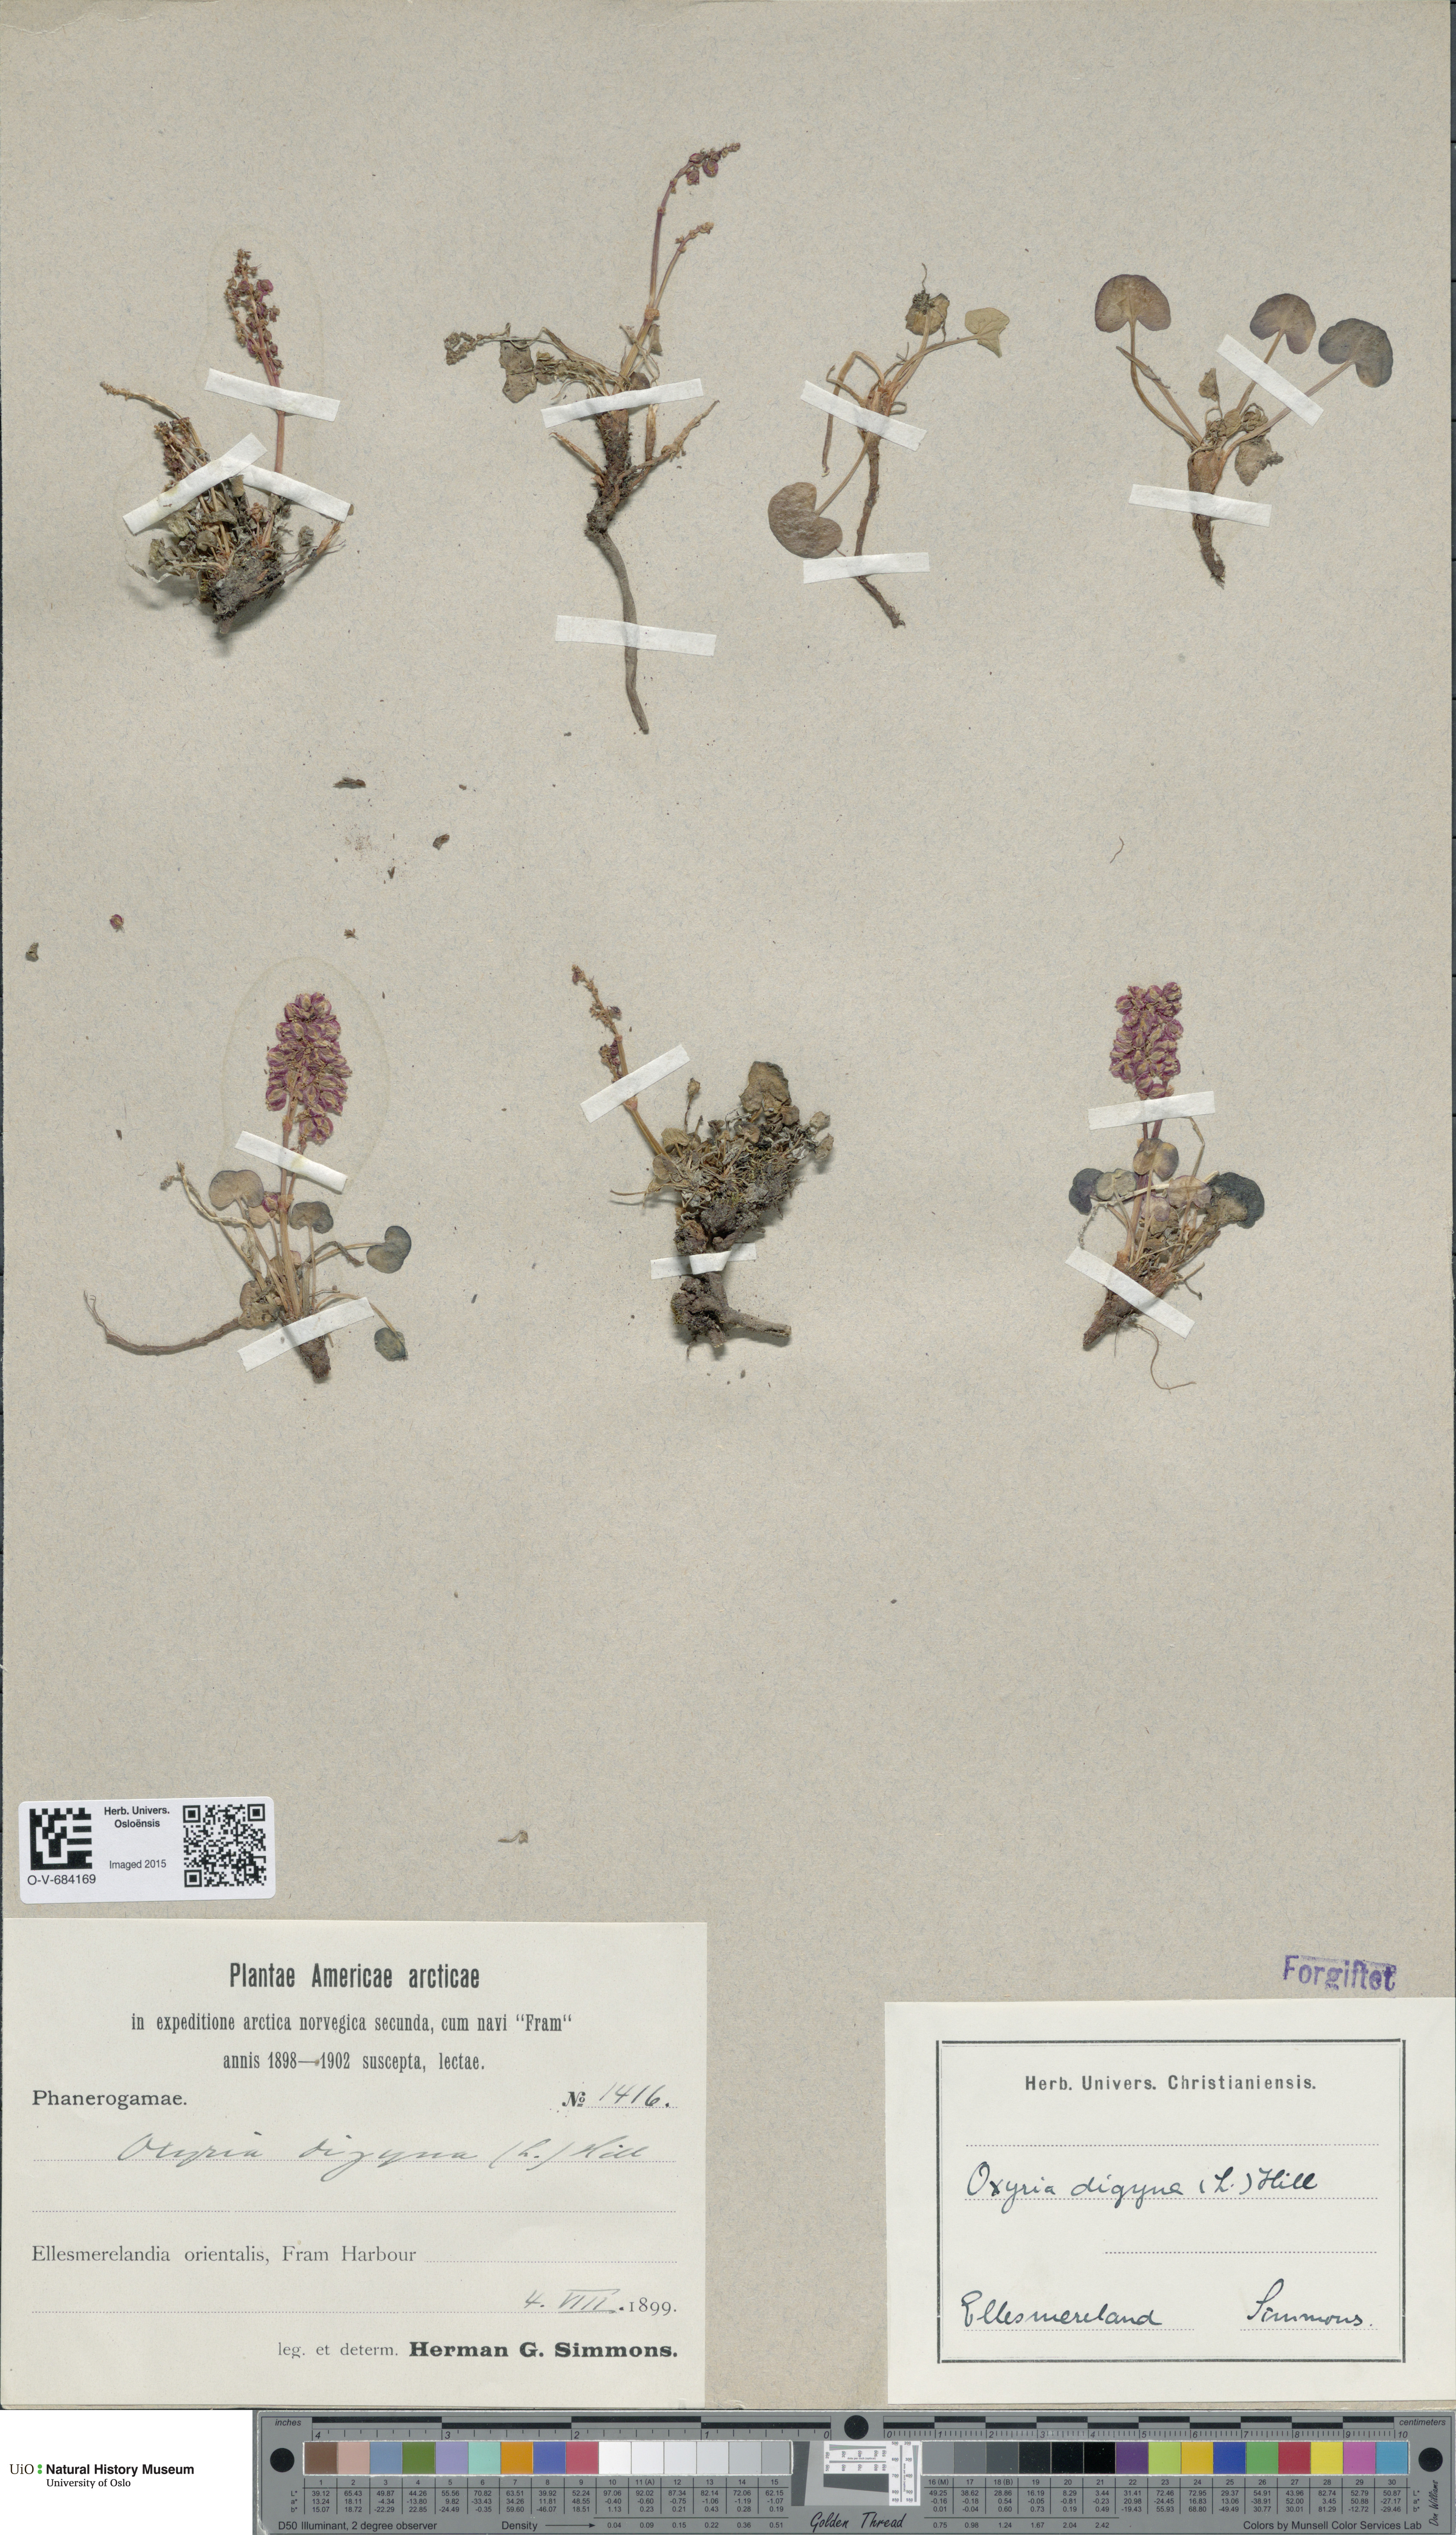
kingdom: Plantae
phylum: Tracheophyta
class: Magnoliopsida
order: Caryophyllales
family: Polygonaceae
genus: Oxyria
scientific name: Oxyria digyna
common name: Alpine mountain-sorrel
